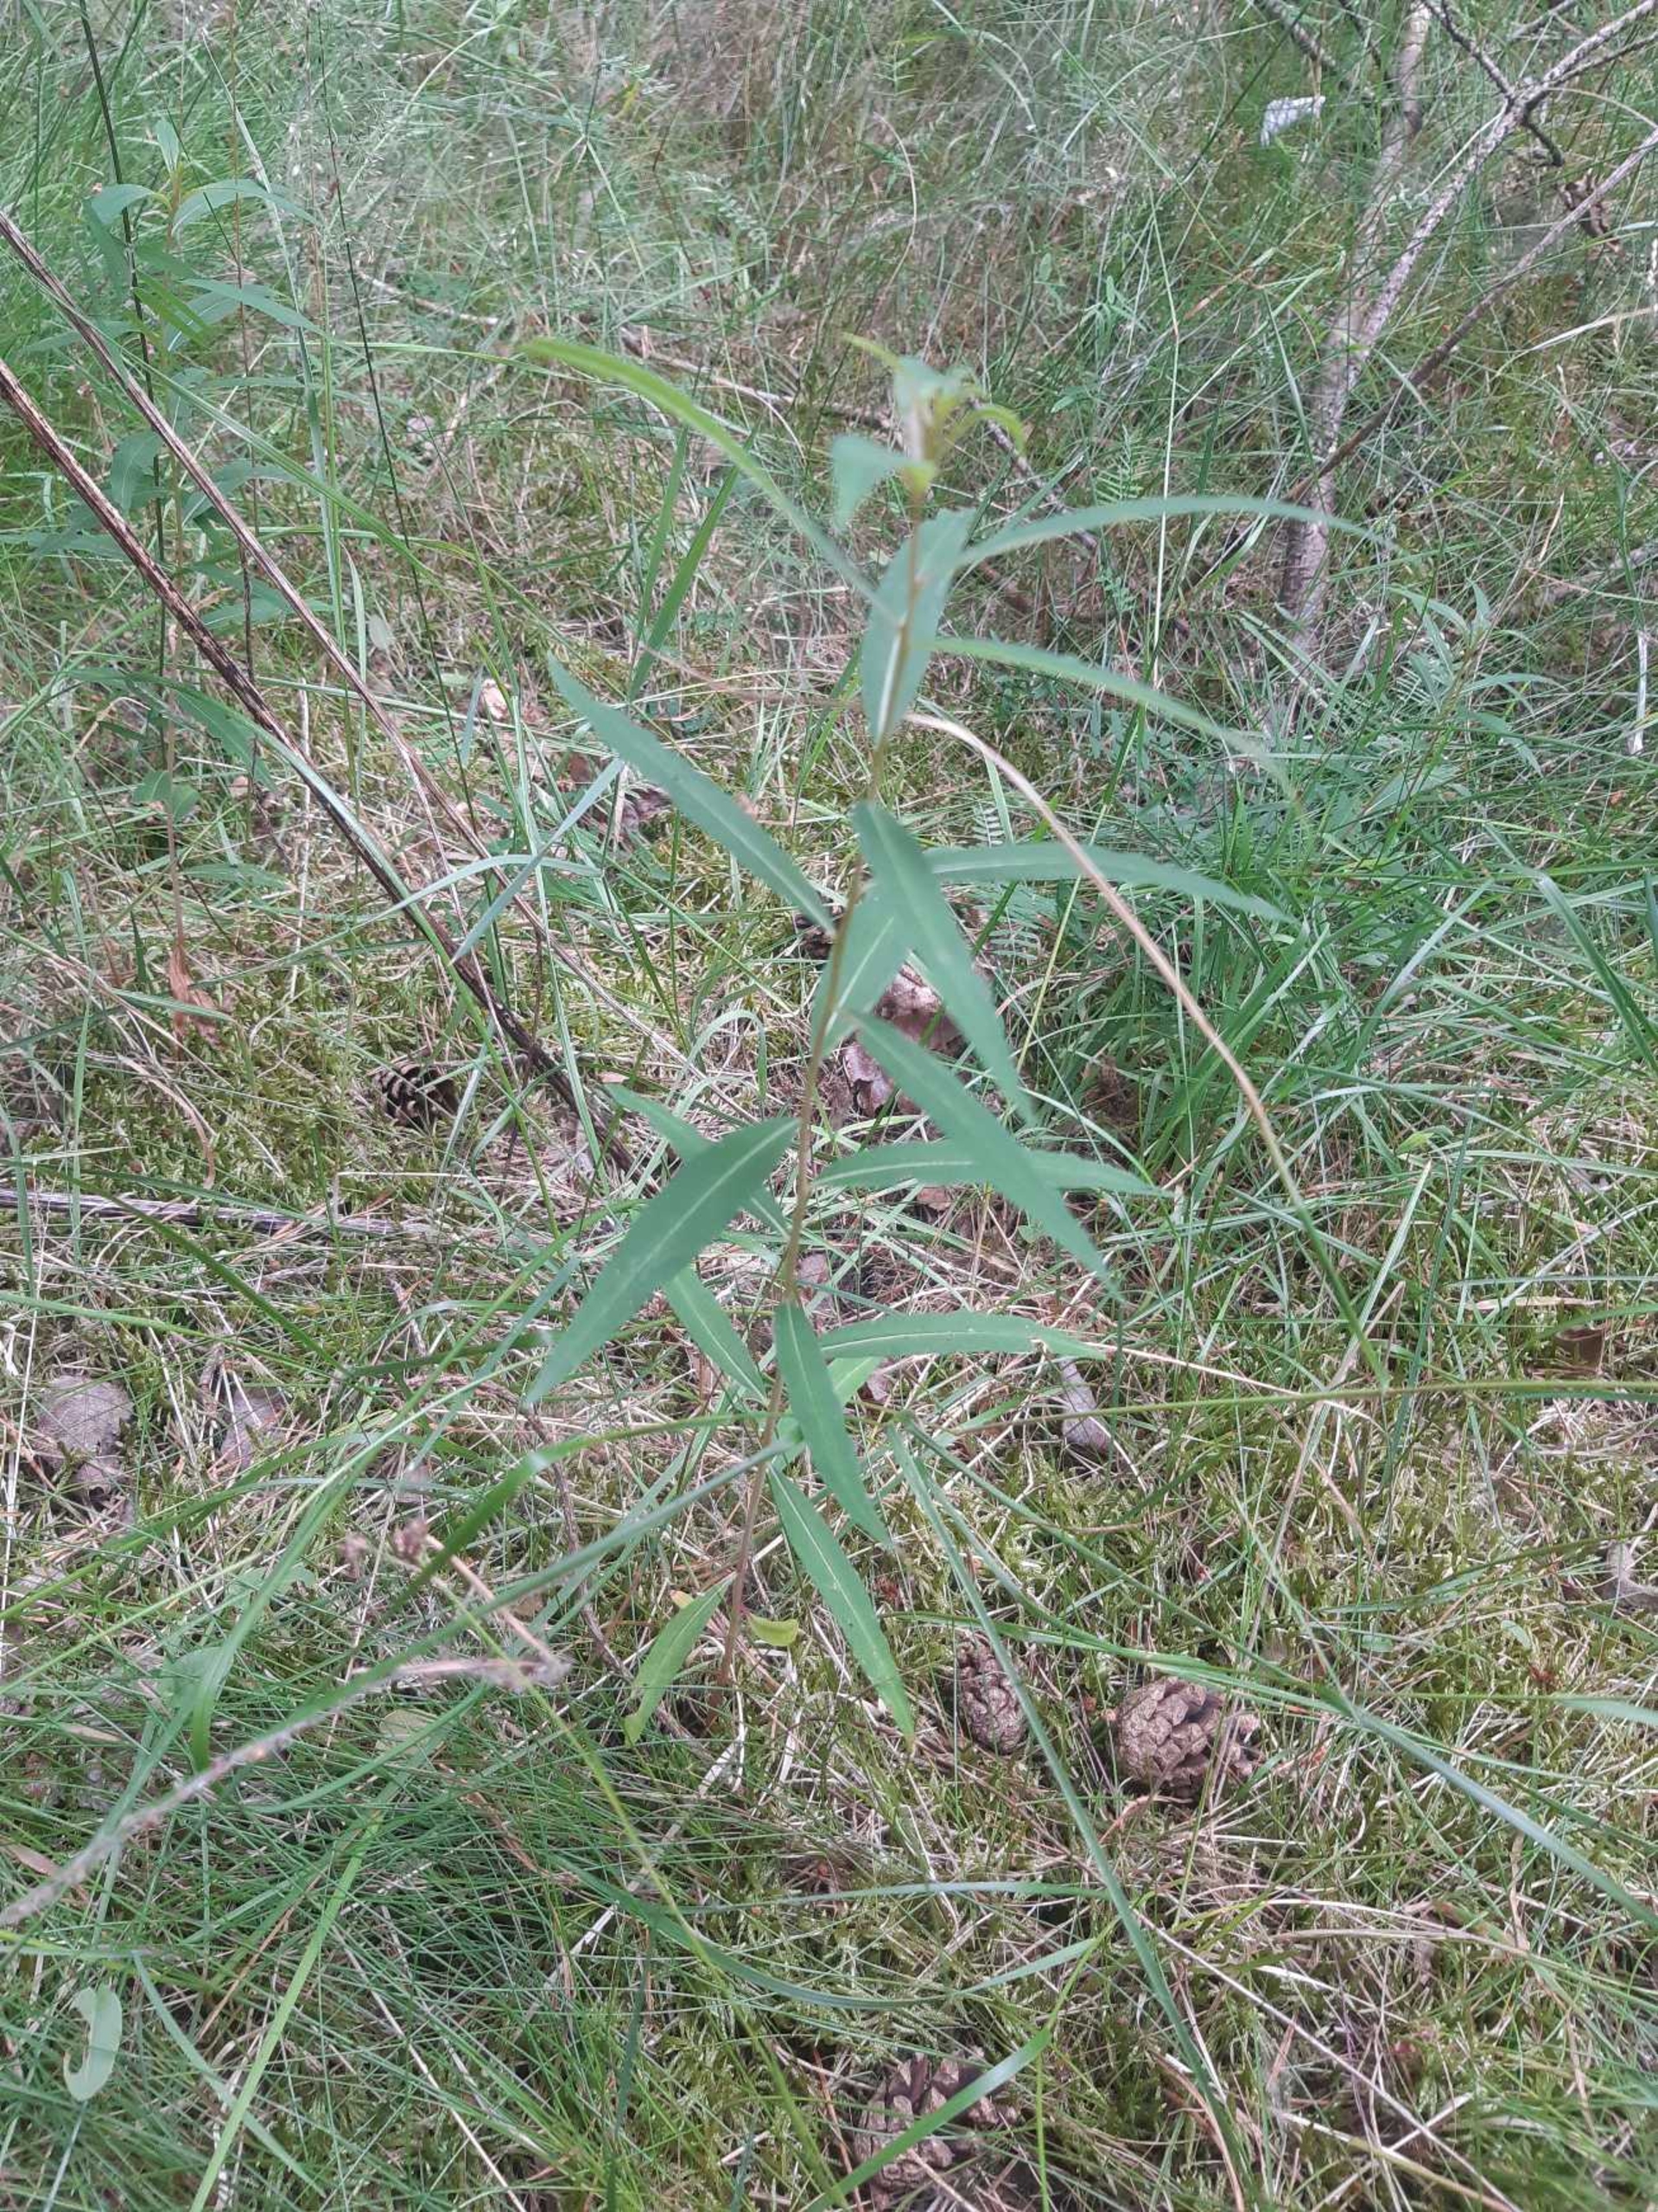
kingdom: Plantae
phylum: Tracheophyta
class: Magnoliopsida
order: Myrtales
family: Onagraceae
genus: Chamaenerion
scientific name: Chamaenerion angustifolium
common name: Gederams
